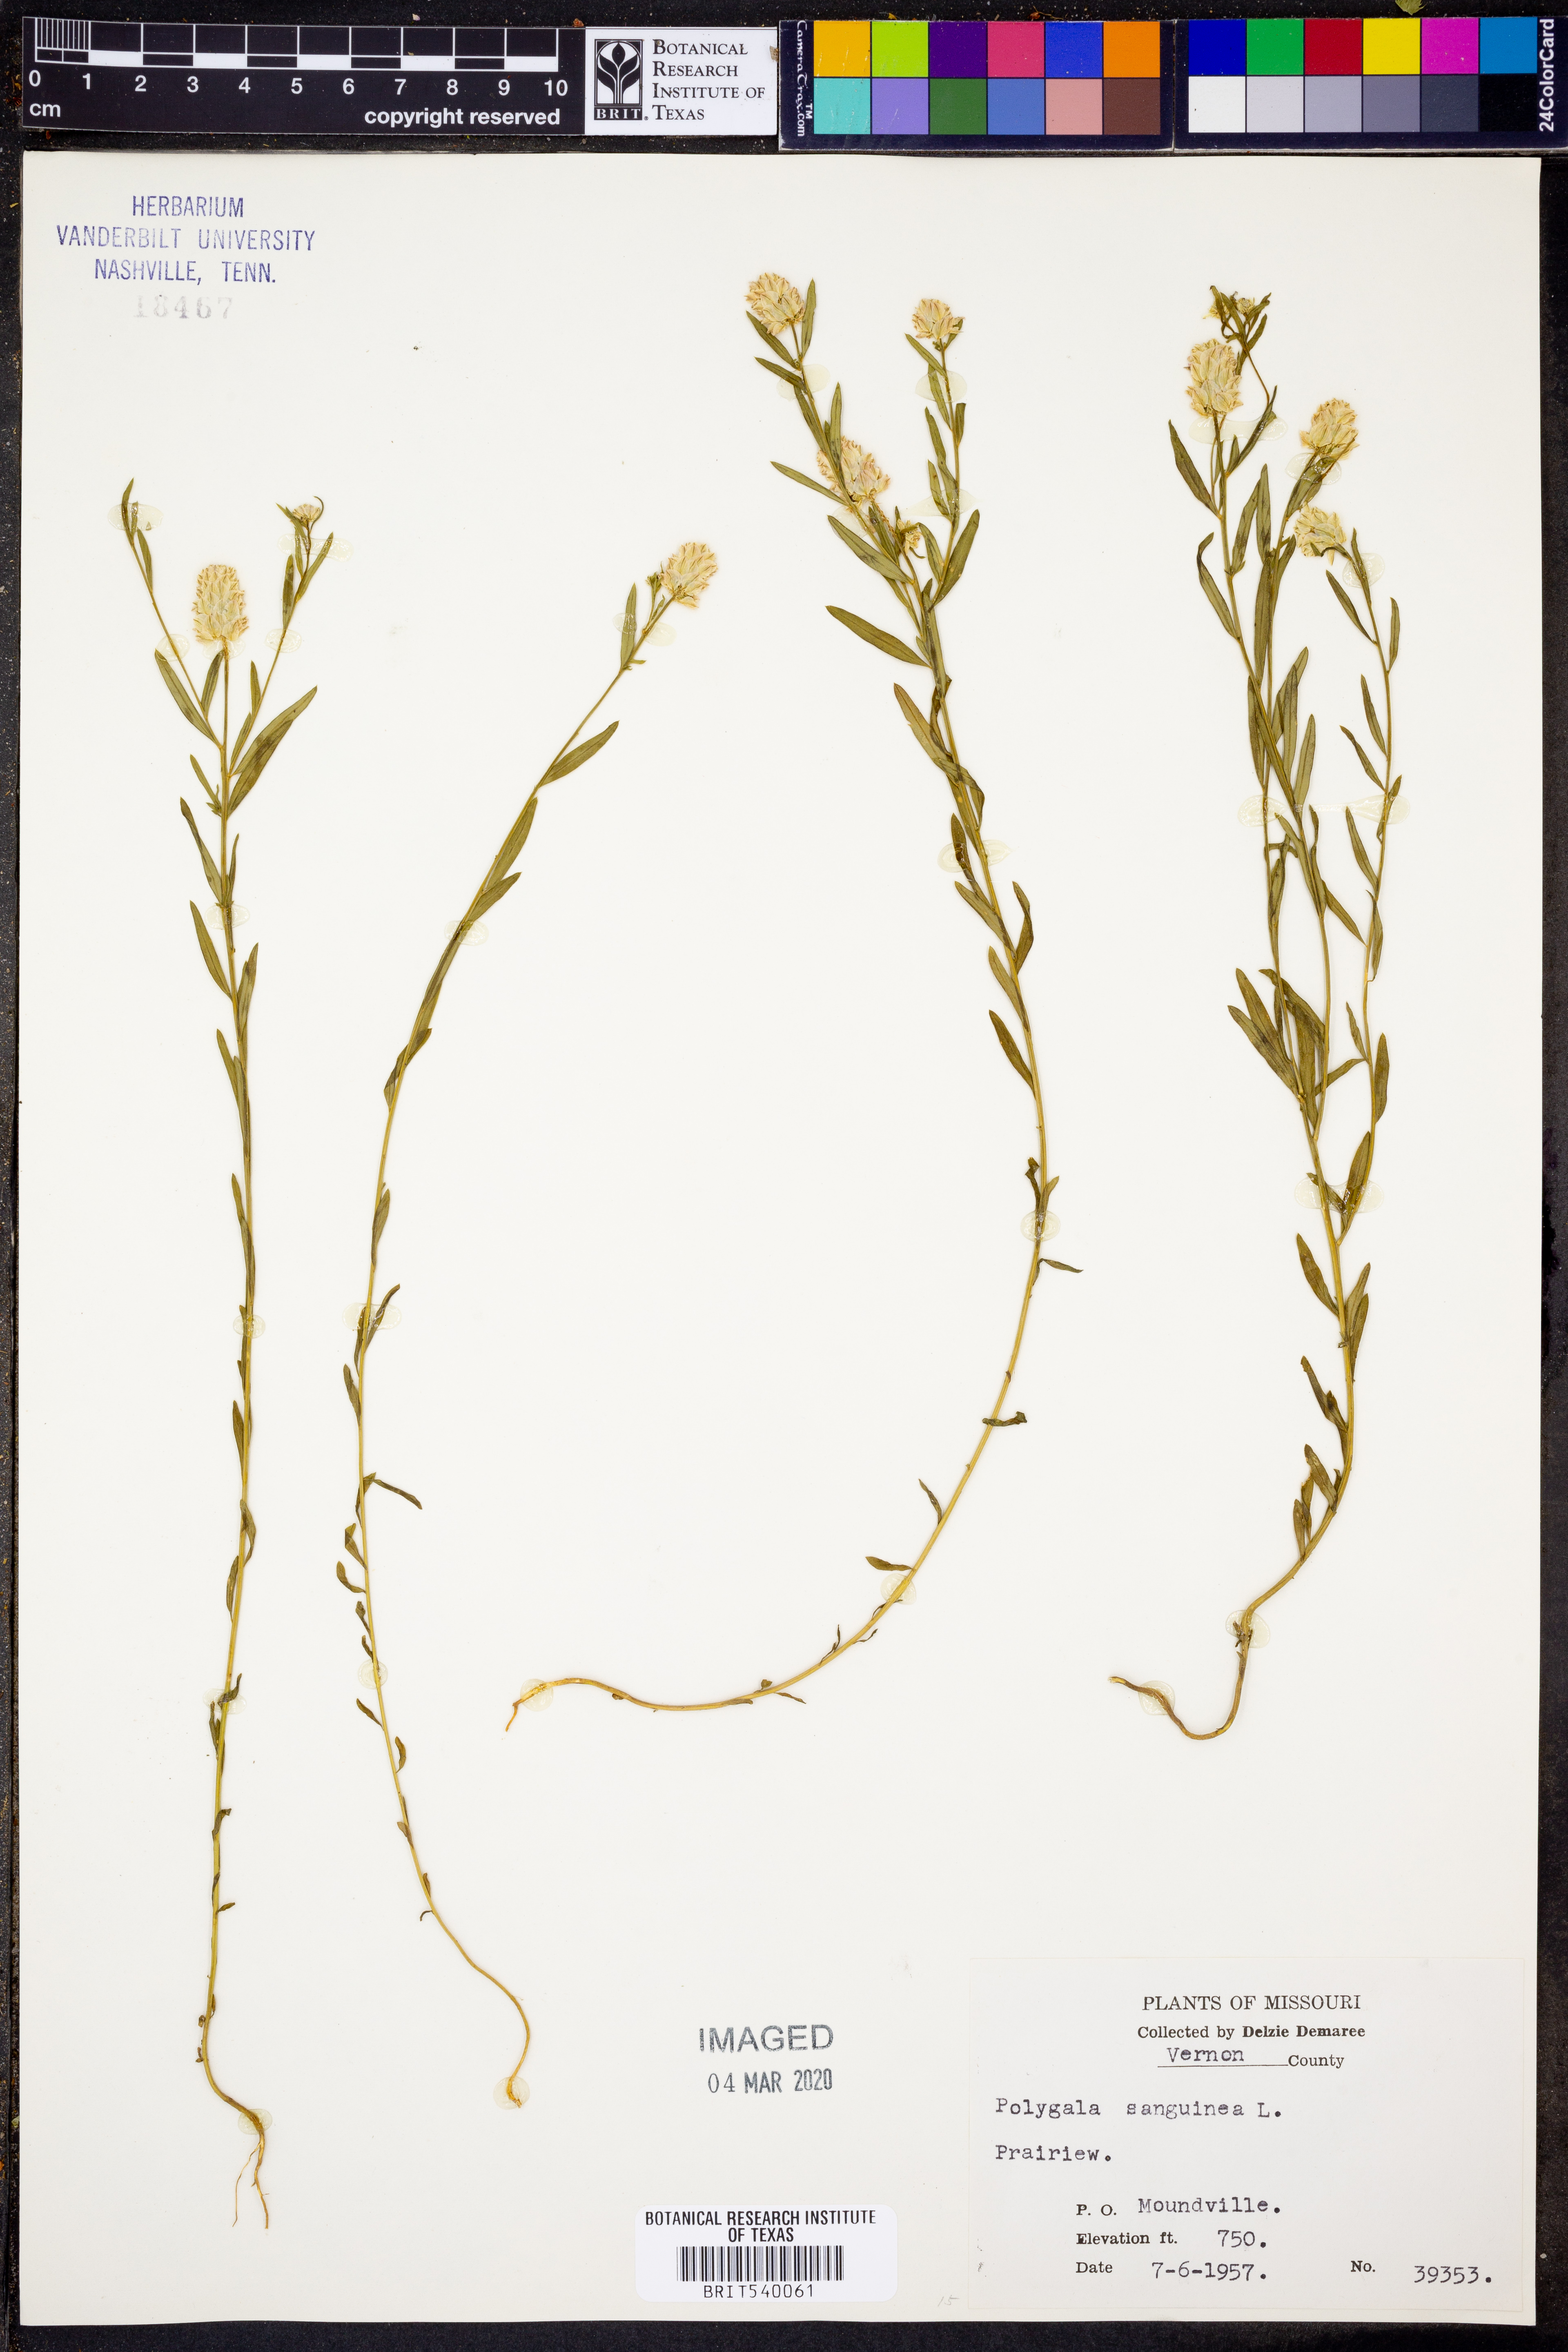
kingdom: Plantae
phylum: Tracheophyta
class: Magnoliopsida
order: Fabales
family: Polygalaceae
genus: Polygala
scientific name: Polygala sanguinea
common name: Blood milkwort
